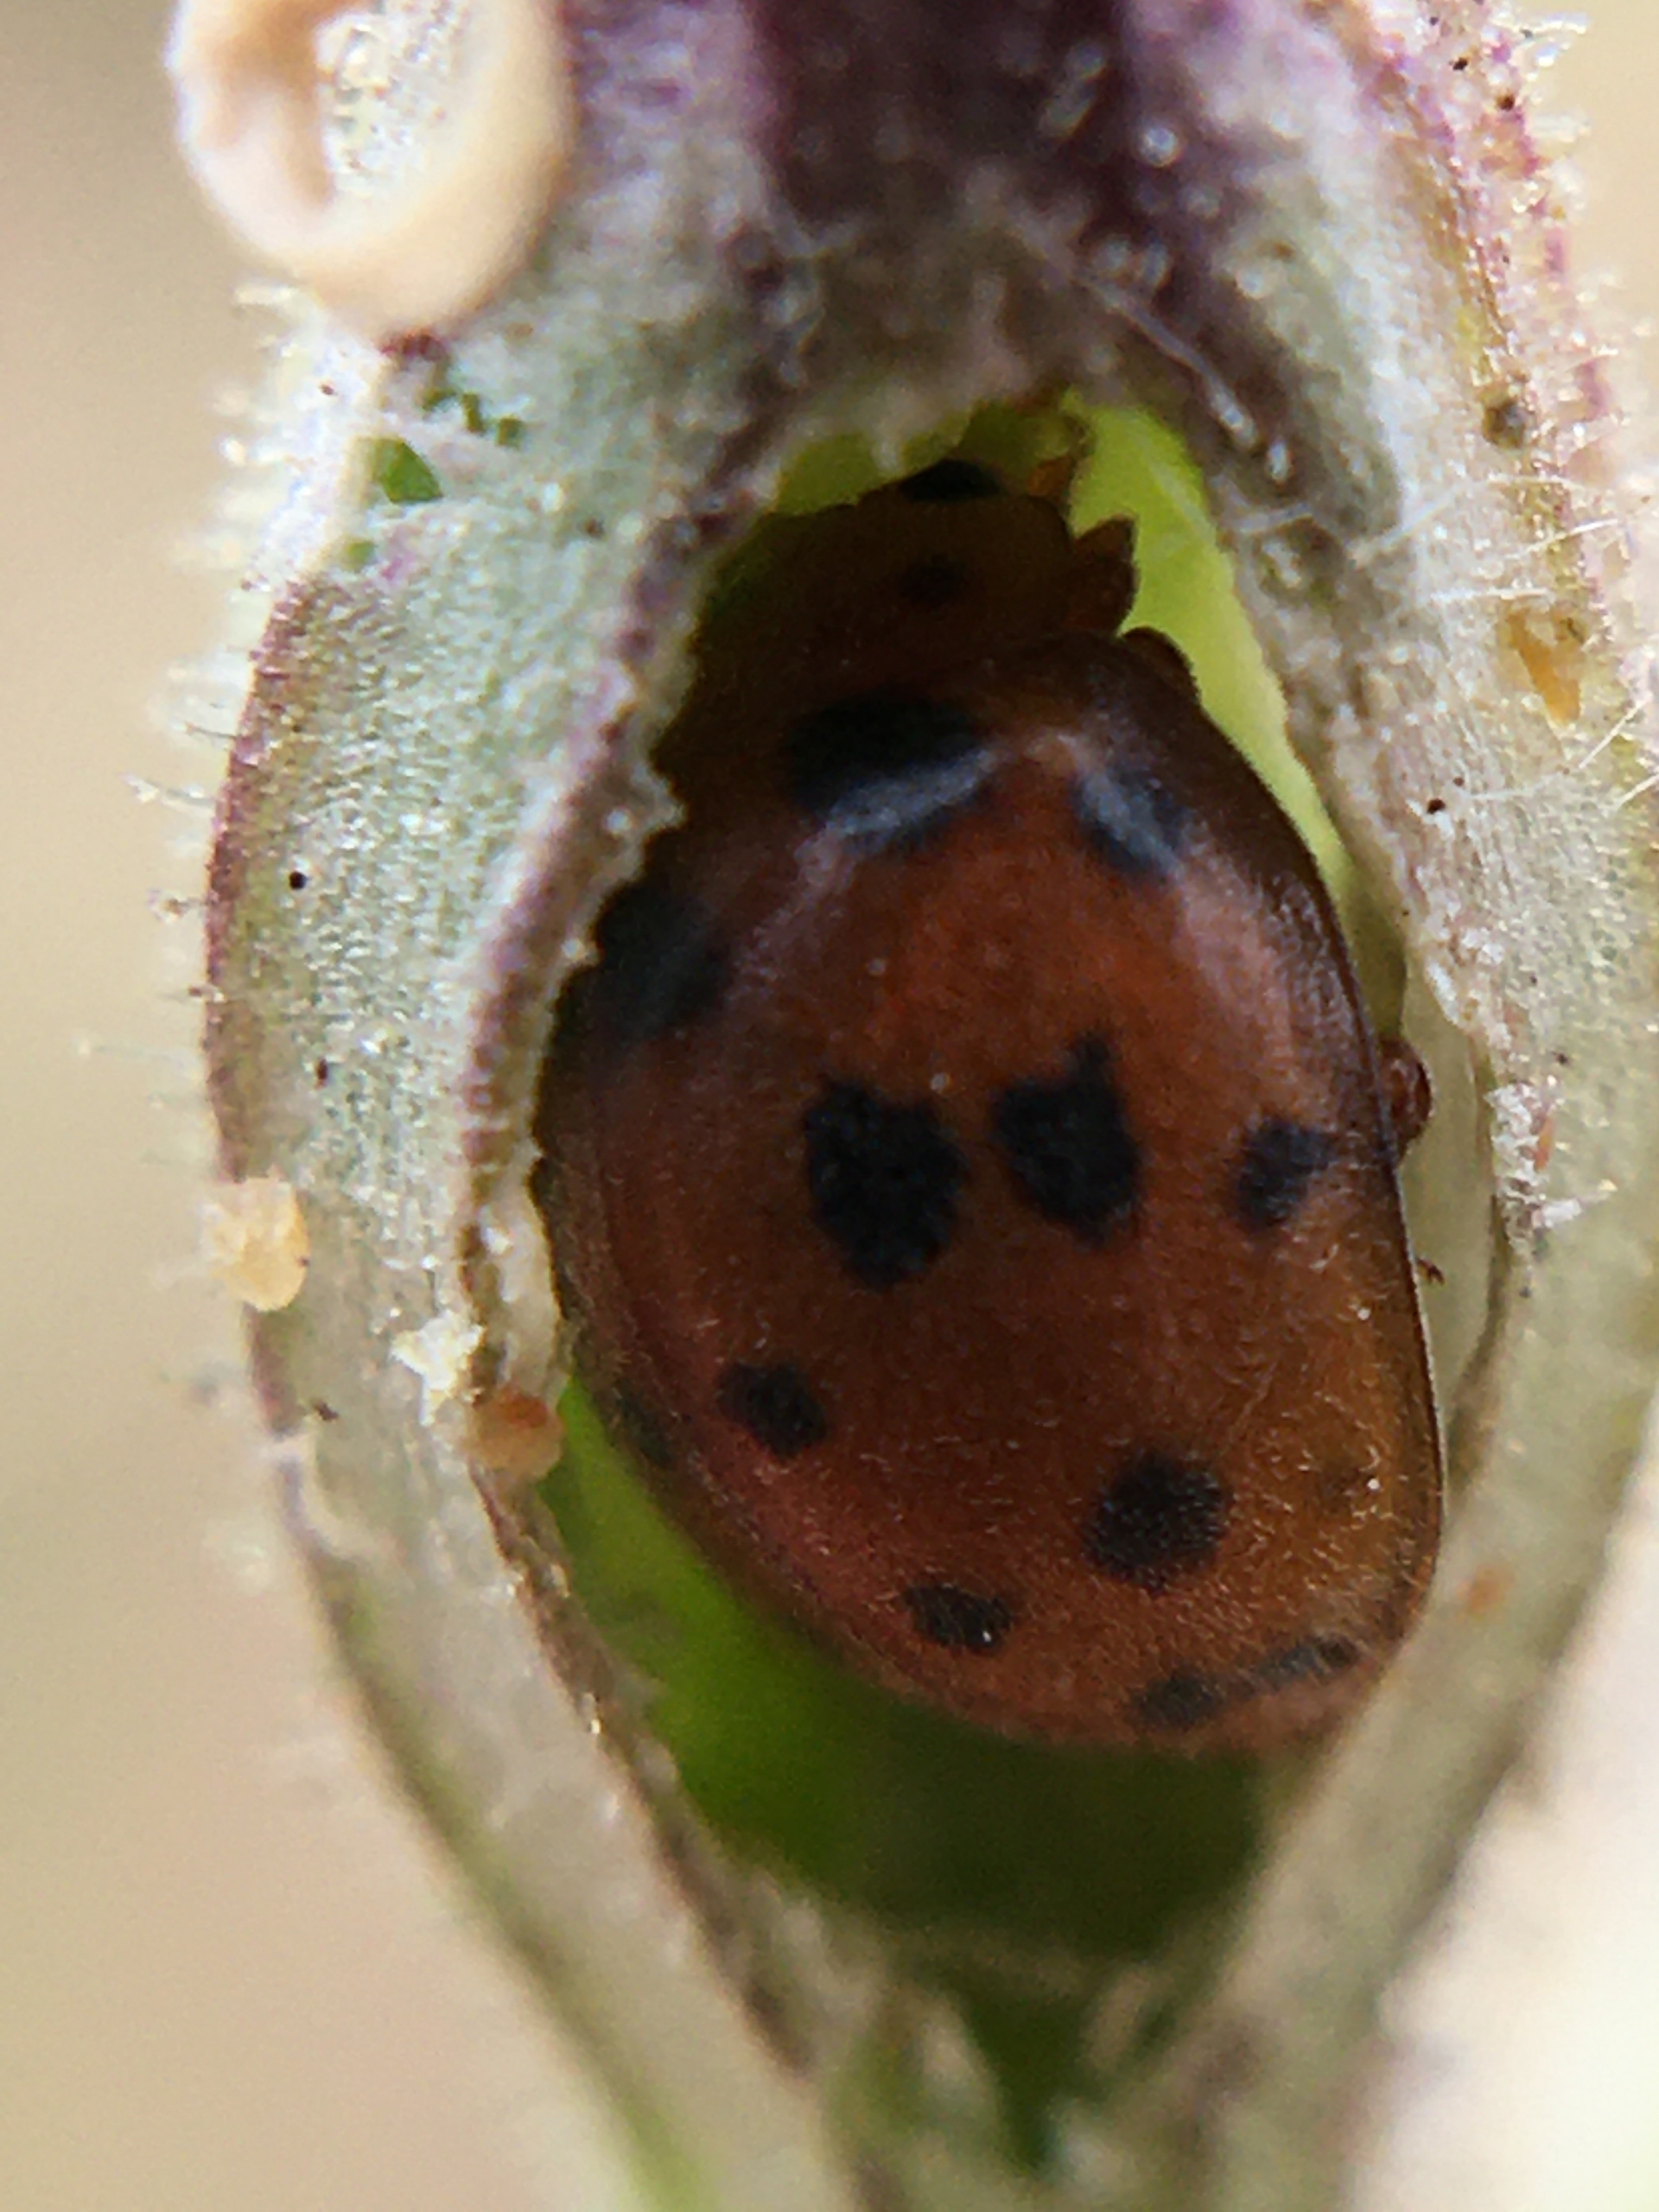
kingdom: Animalia
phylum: Arthropoda
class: Insecta
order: Coleoptera
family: Coccinellidae
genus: Subcoccinella
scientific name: Subcoccinella vigintiquatuorpunctata
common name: Fireogtyveplettet mariehøne
